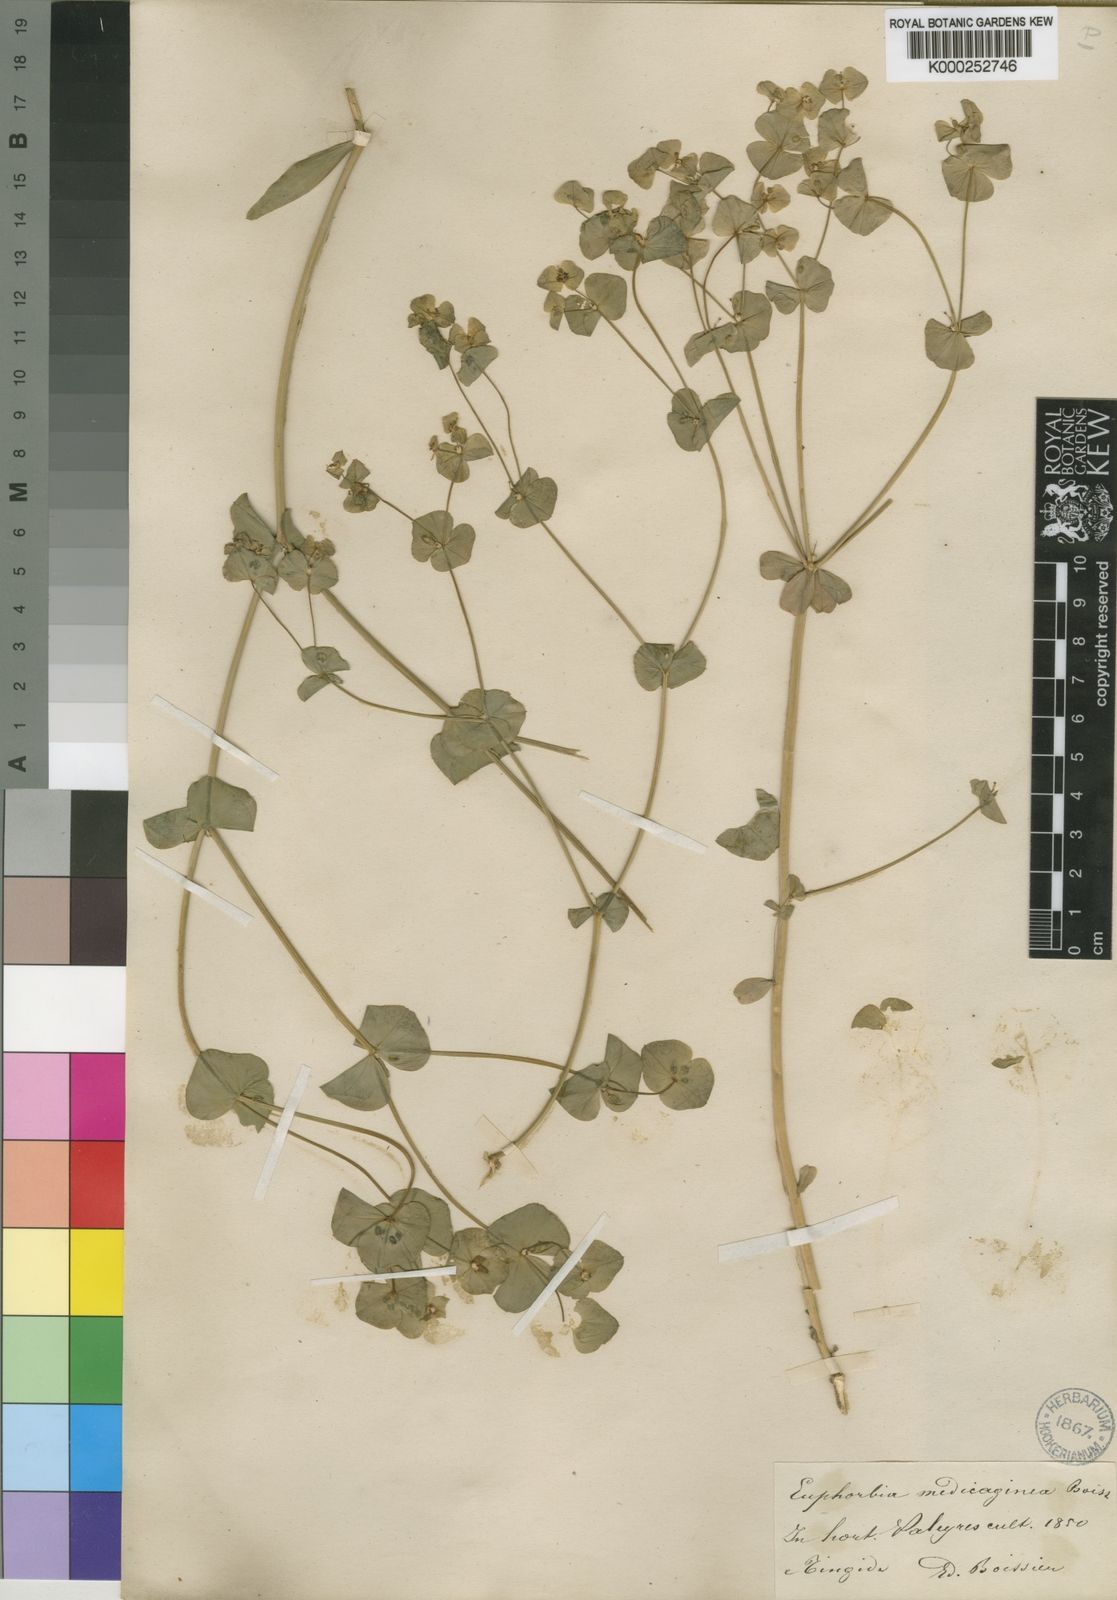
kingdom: Plantae
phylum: Tracheophyta
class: Magnoliopsida
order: Malpighiales
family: Euphorbiaceae
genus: Euphorbia
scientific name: Euphorbia medicaginea
